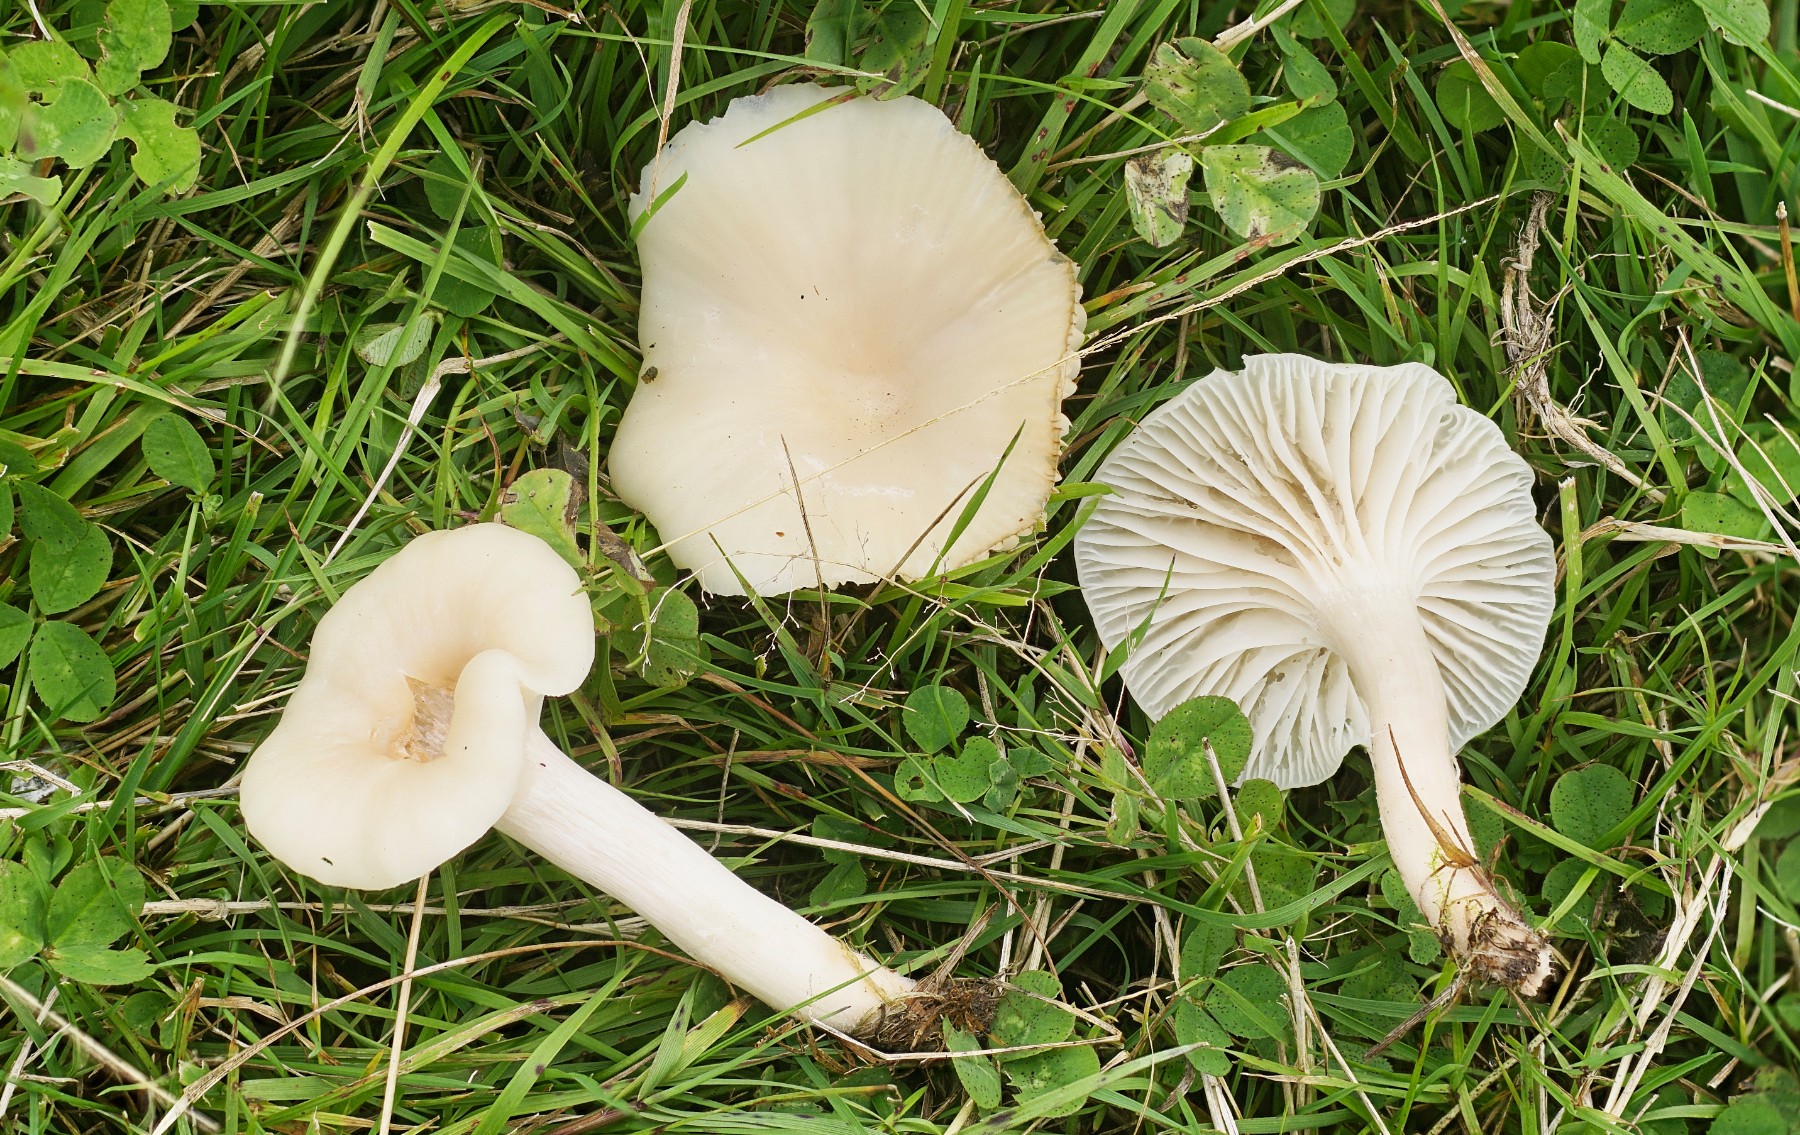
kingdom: Fungi
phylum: Basidiomycota
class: Agaricomycetes
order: Agaricales
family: Hygrophoraceae
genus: Cuphophyllus
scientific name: Cuphophyllus
